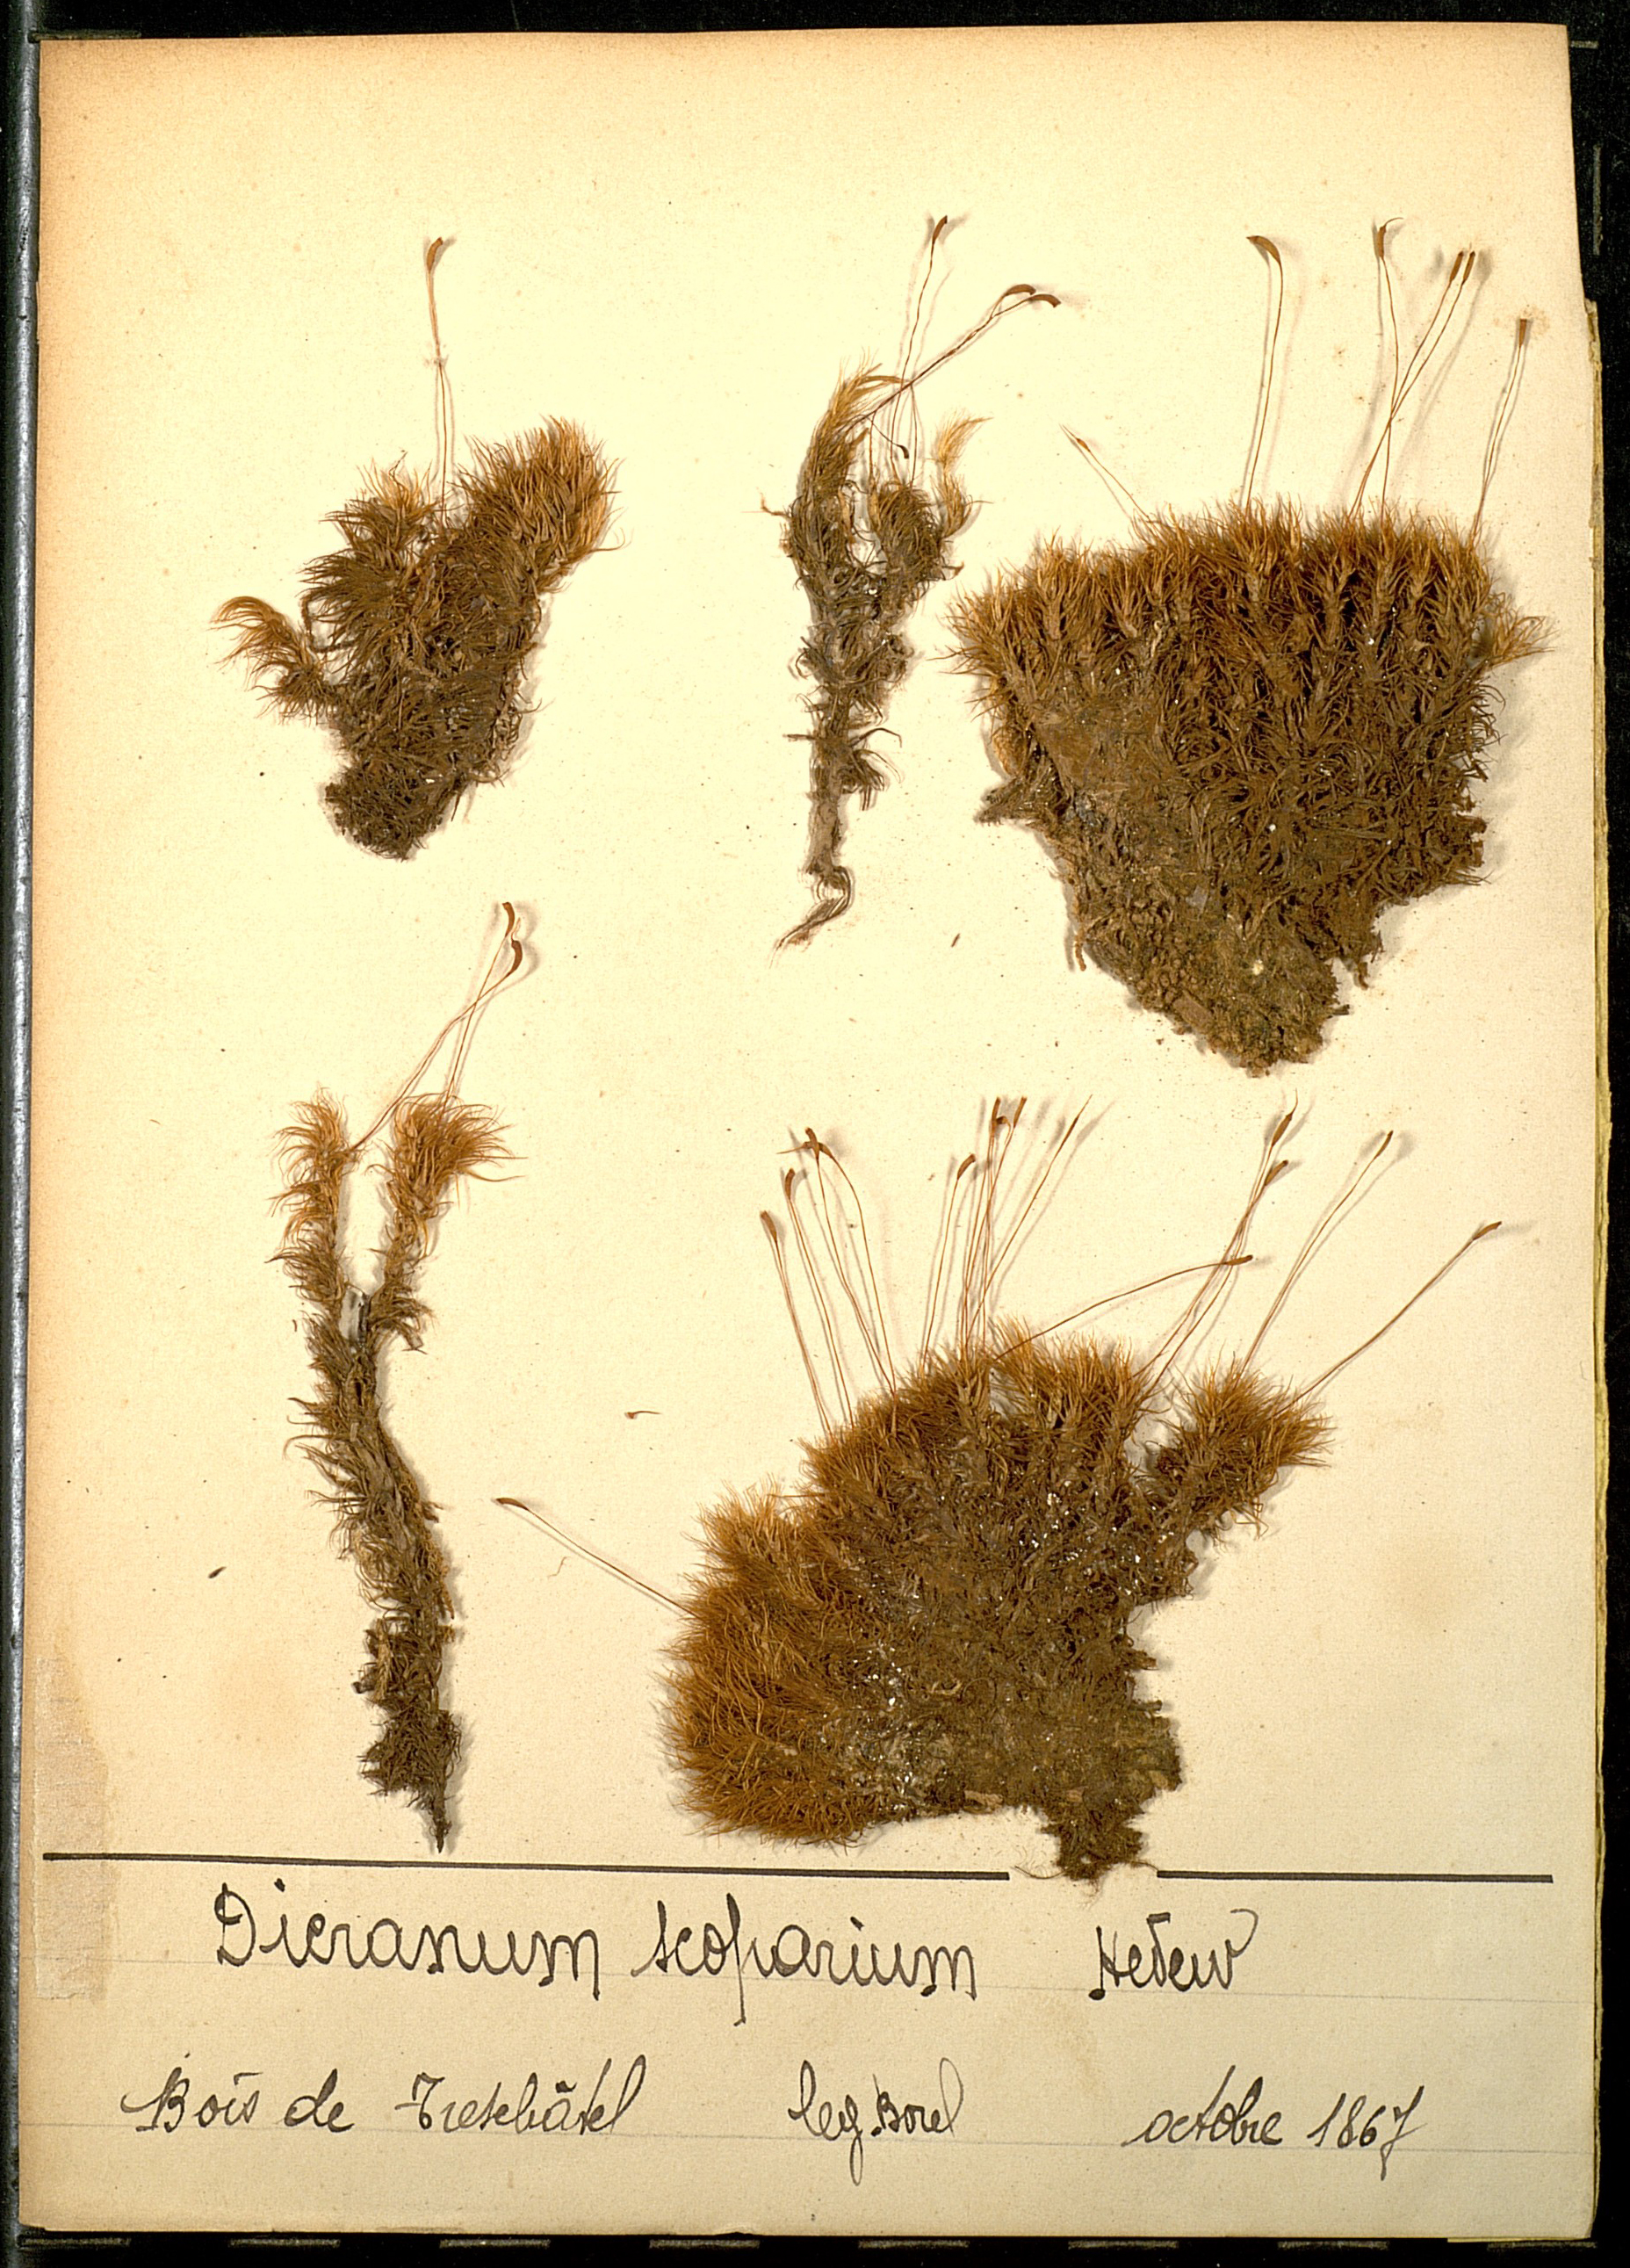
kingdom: Plantae
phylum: Bryophyta
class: Bryopsida
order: Dicranales
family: Dicranaceae
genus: Dicranum
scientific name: Dicranum scoparium
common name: Broom fork-moss
